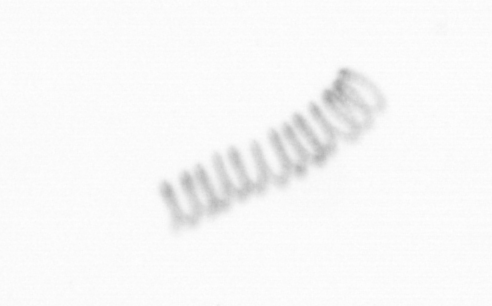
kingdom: Chromista
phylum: Ochrophyta
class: Bacillariophyceae
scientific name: Bacillariophyceae
